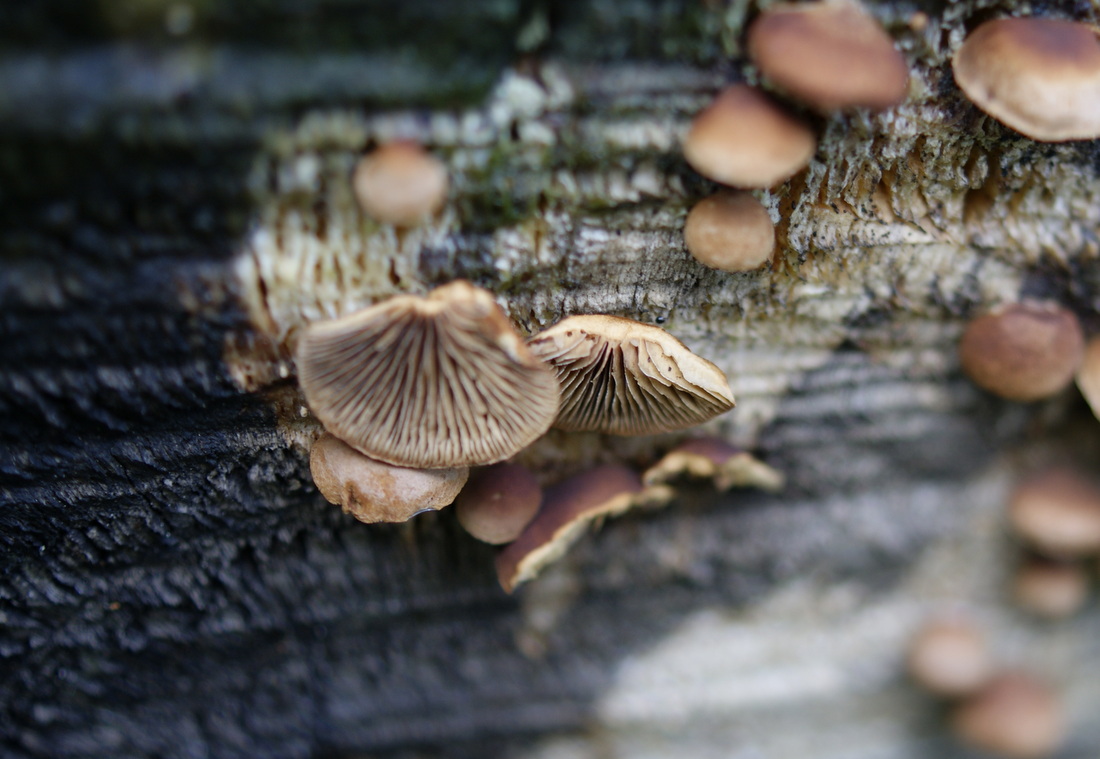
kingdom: Fungi
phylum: Basidiomycota
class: Agaricomycetes
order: Agaricales
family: Strophariaceae
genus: Deconica
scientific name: Deconica horizontalis
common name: ved-stråhat
